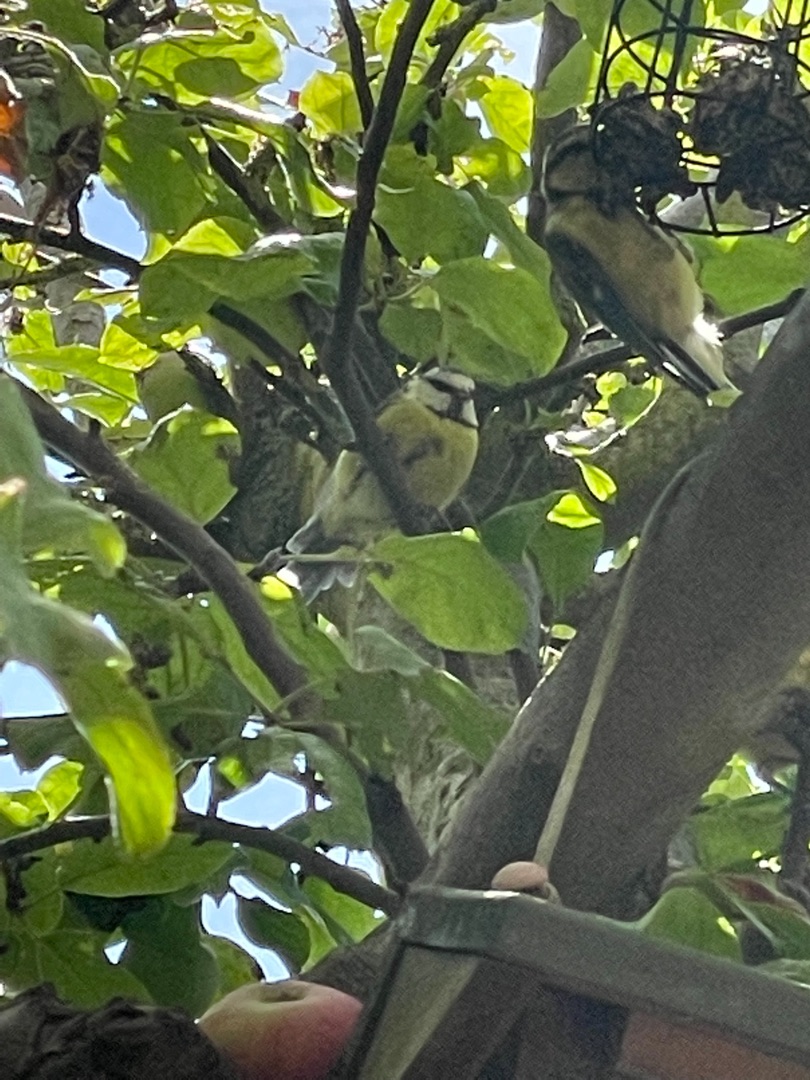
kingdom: Animalia
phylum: Chordata
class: Aves
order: Passeriformes
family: Paridae
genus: Cyanistes
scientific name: Cyanistes caeruleus
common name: Blåmejse
